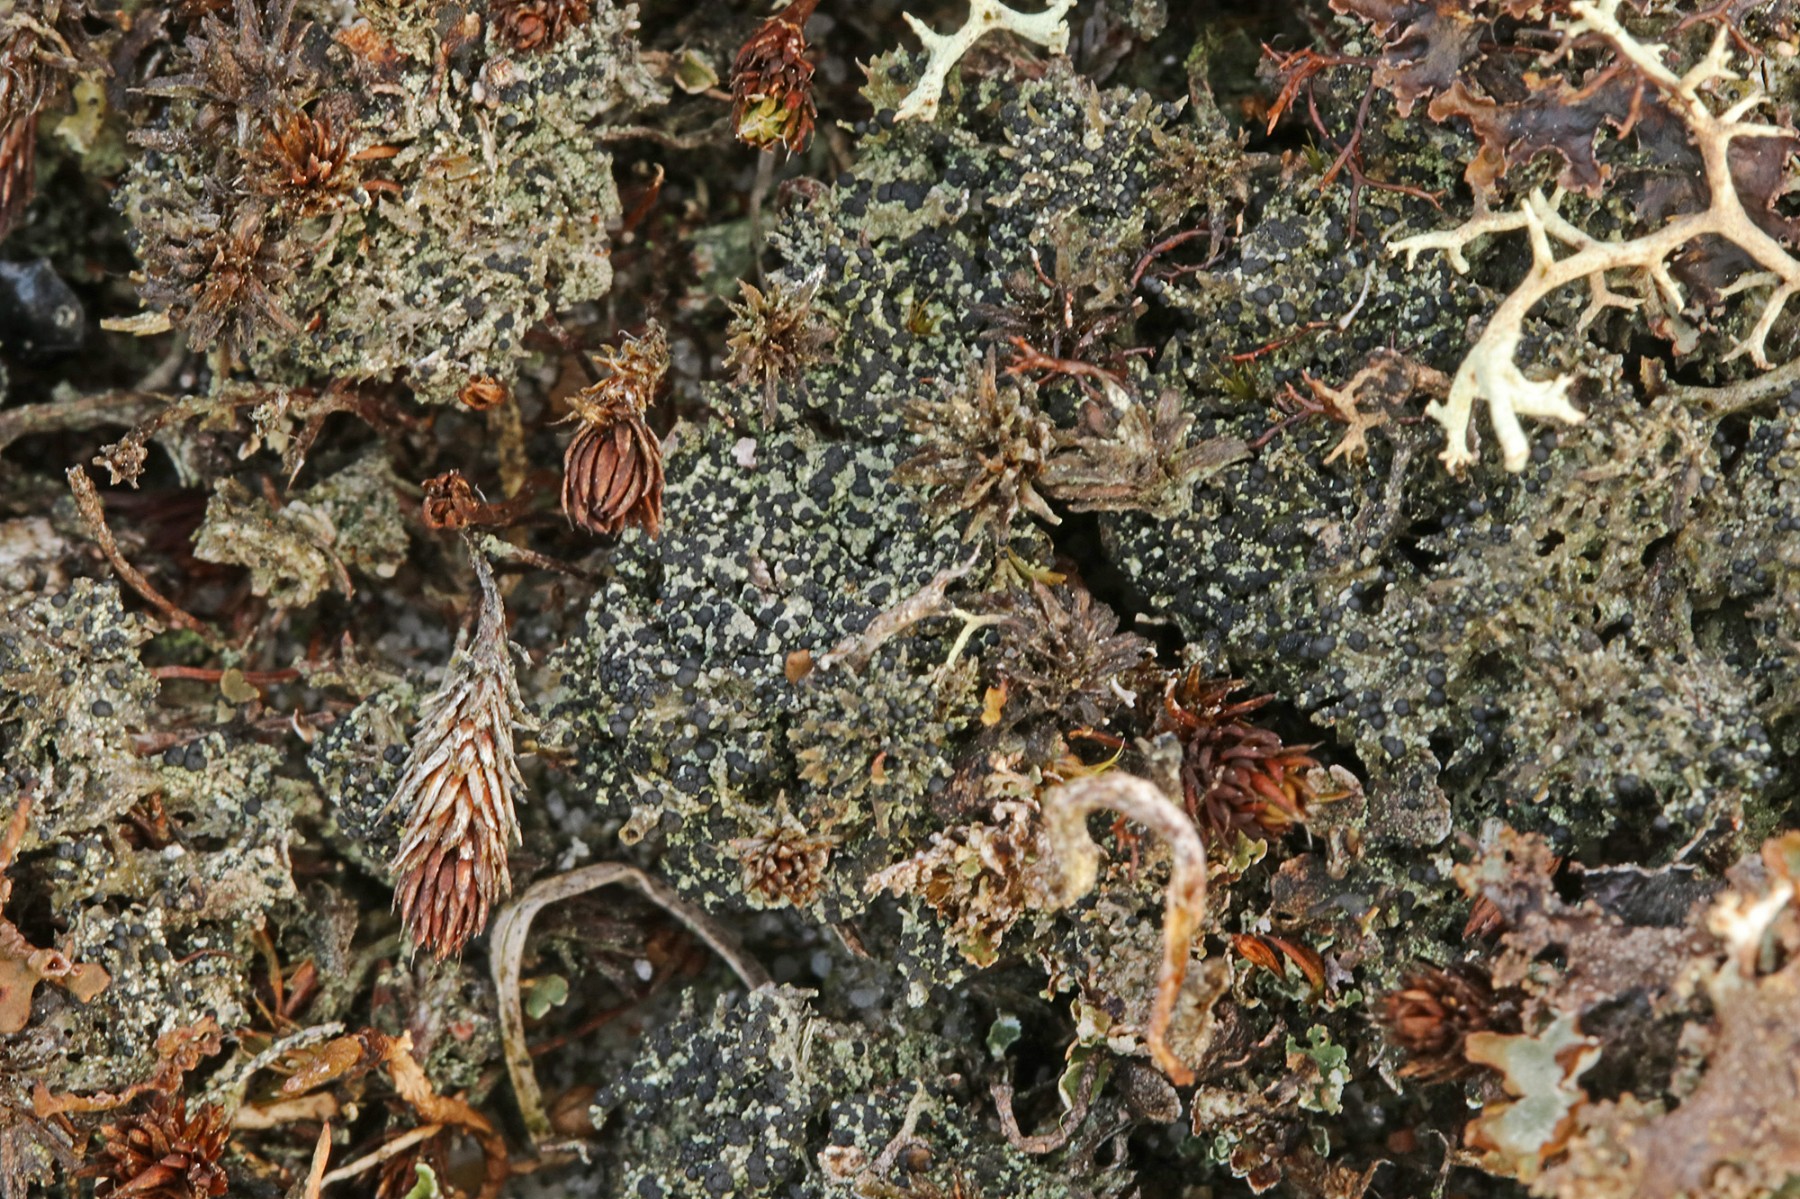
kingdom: Fungi
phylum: Ascomycota
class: Lecanoromycetes
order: Lecanorales
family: Byssolomataceae
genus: Micarea
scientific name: Micarea lignaria
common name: tørve-knaplav
